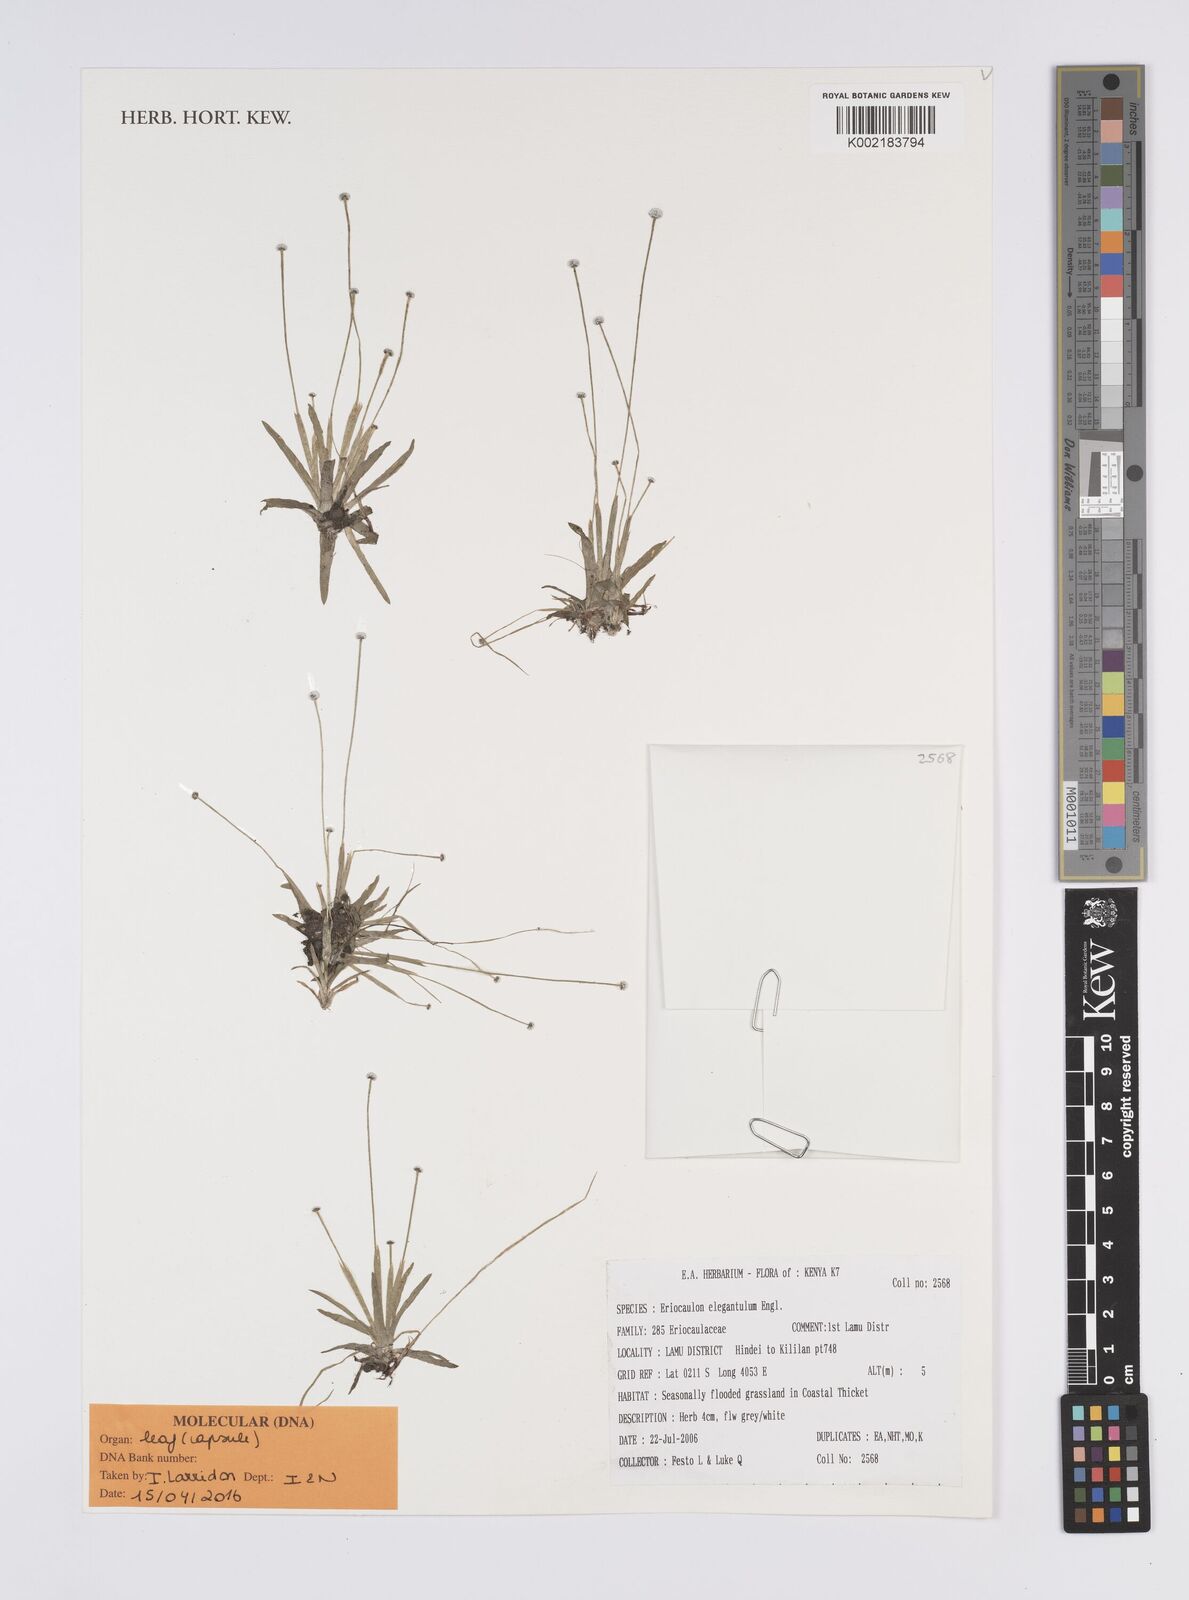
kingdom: Plantae
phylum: Tracheophyta
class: Liliopsida
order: Poales
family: Eriocaulaceae
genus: Eriocaulon
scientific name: Eriocaulon elegantulum
